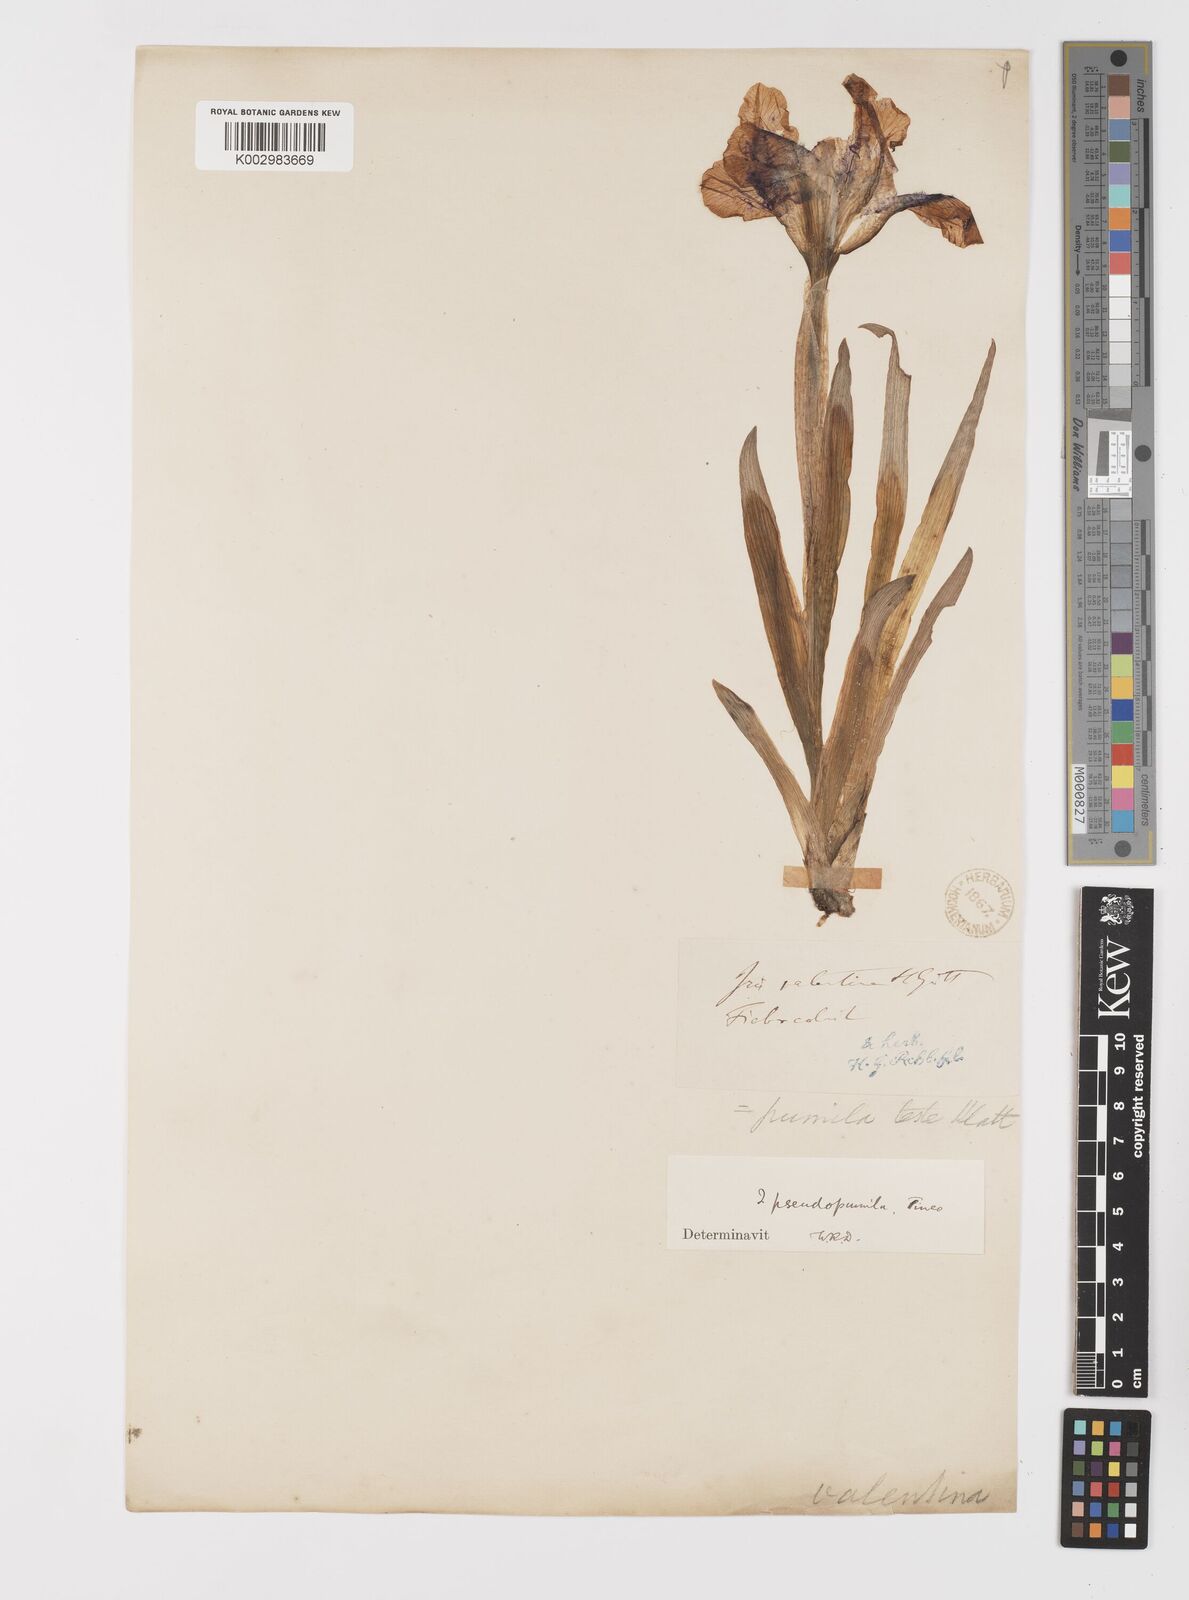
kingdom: Plantae
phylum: Tracheophyta
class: Liliopsida
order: Asparagales
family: Iridaceae
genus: Iris
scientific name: Iris pseudopumila
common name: Southern dwarf iris
